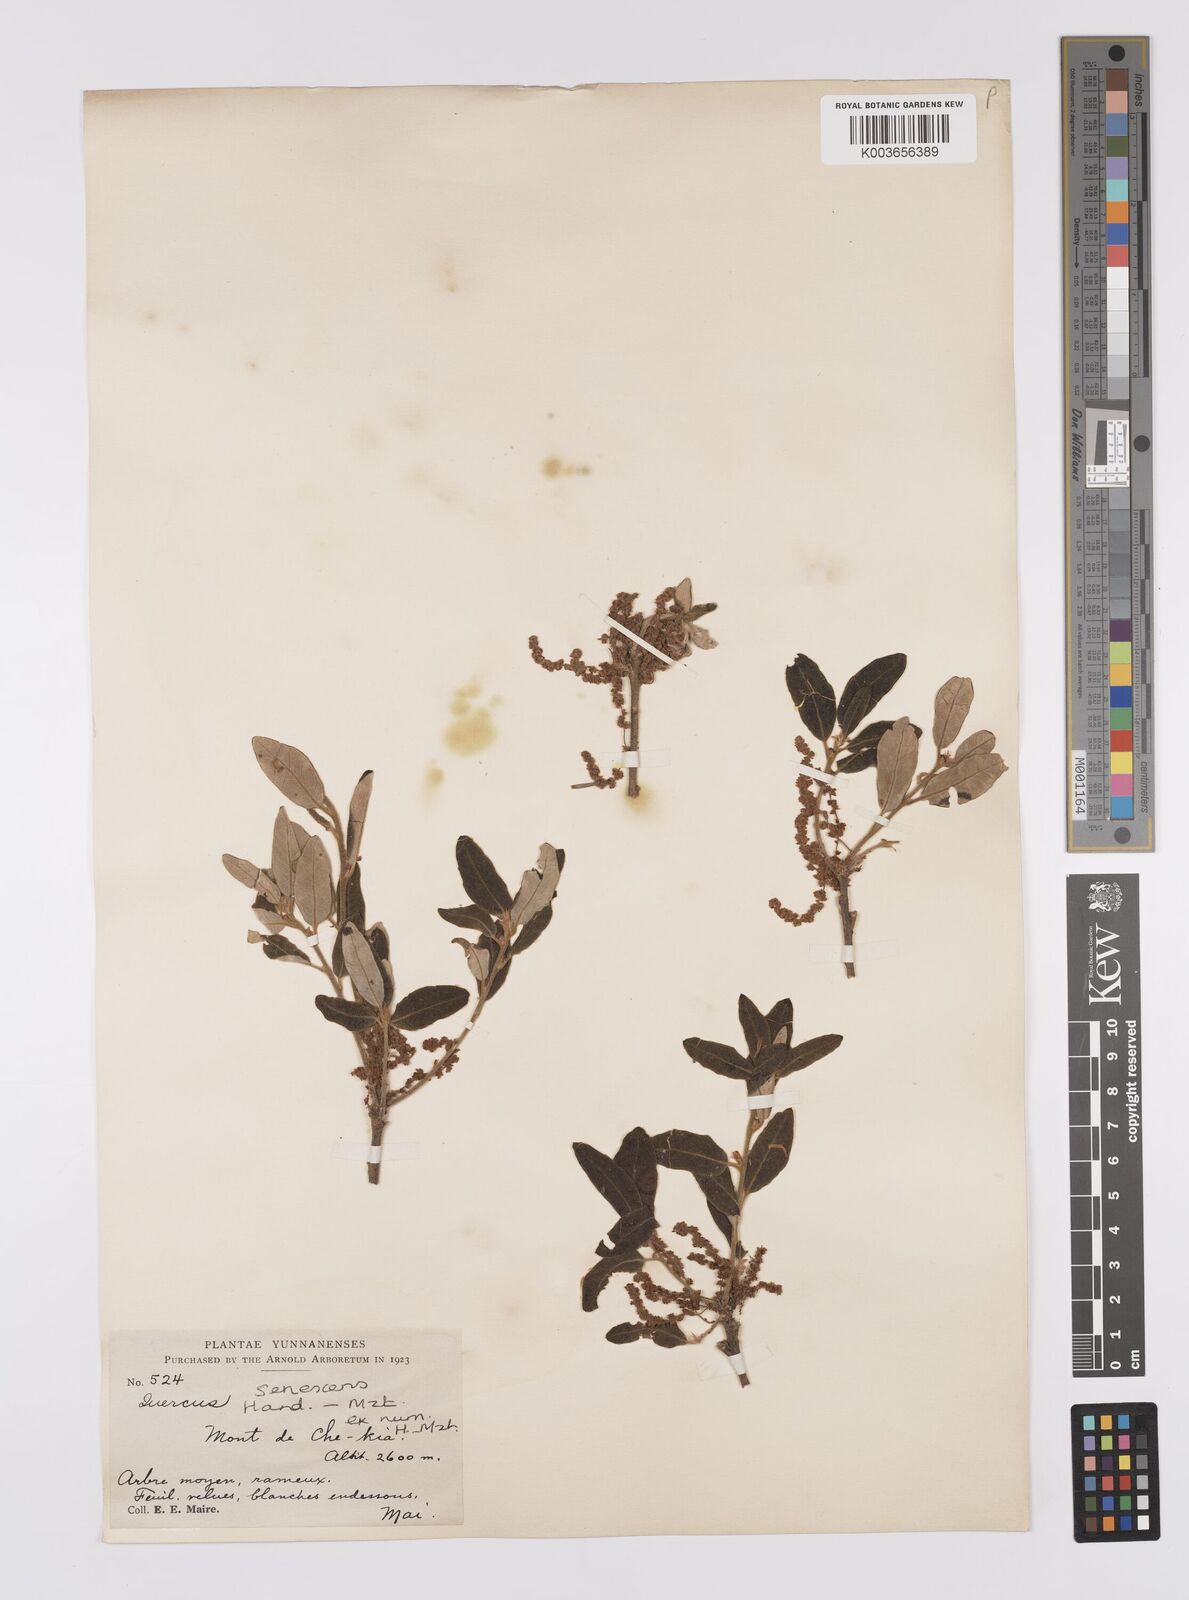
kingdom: Plantae
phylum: Tracheophyta
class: Magnoliopsida
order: Fagales
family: Fagaceae
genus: Quercus
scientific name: Quercus senescens
